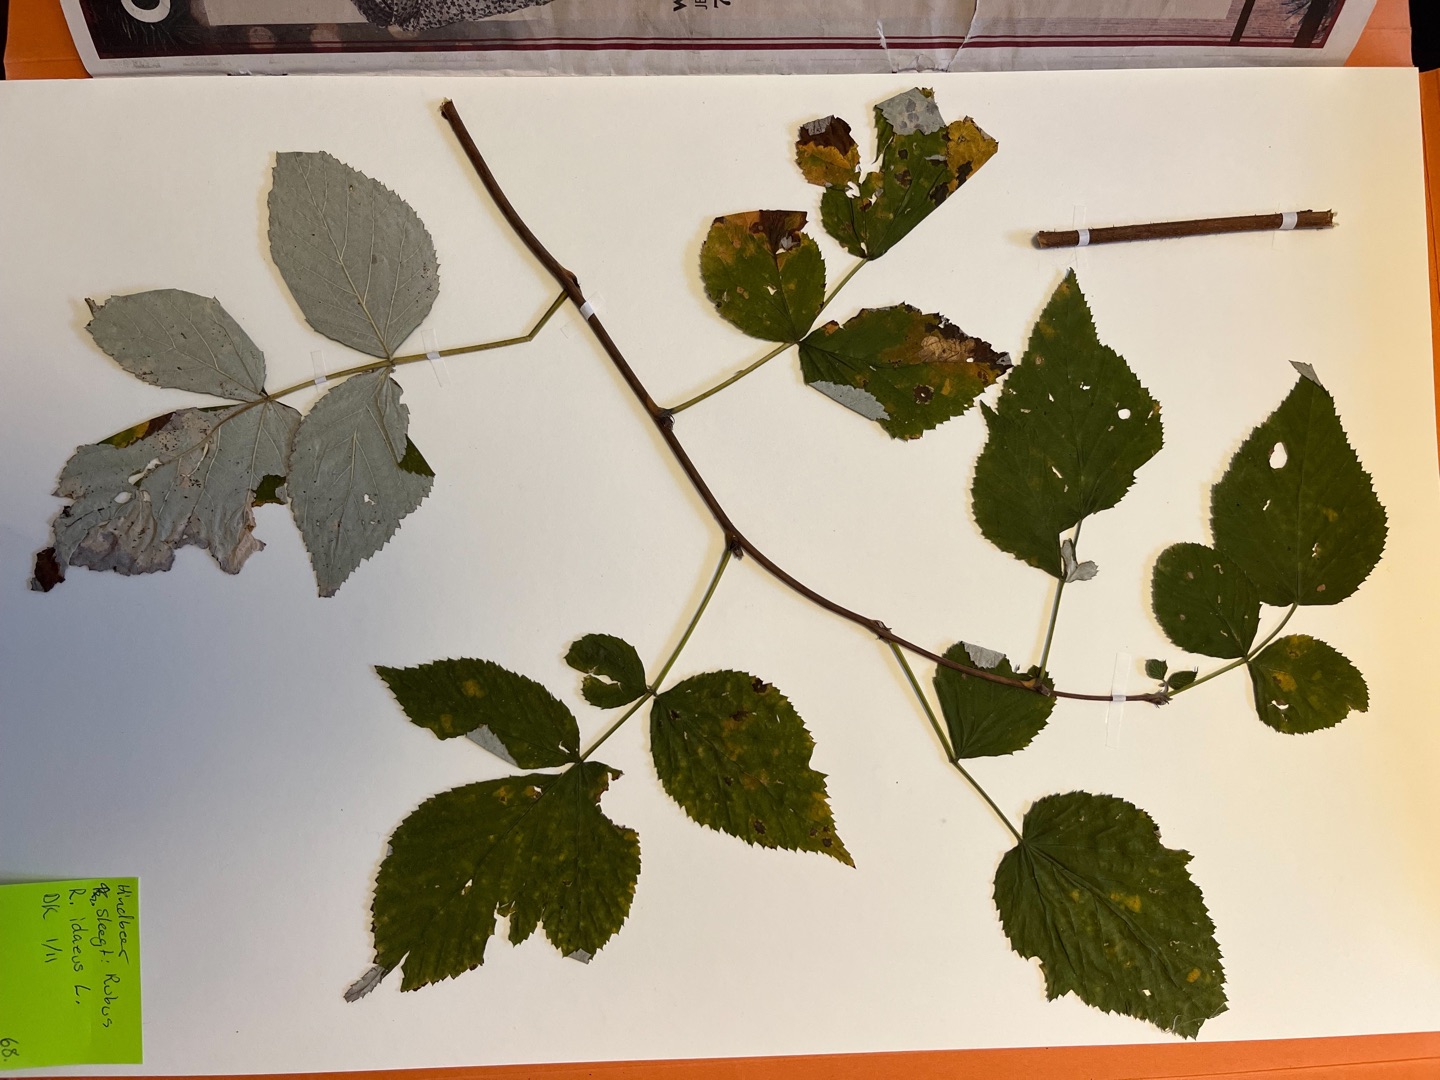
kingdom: Plantae
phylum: Tracheophyta
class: Magnoliopsida
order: Rosales
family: Rosaceae
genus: Rubus
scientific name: Rubus idaeus
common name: Hindbær
